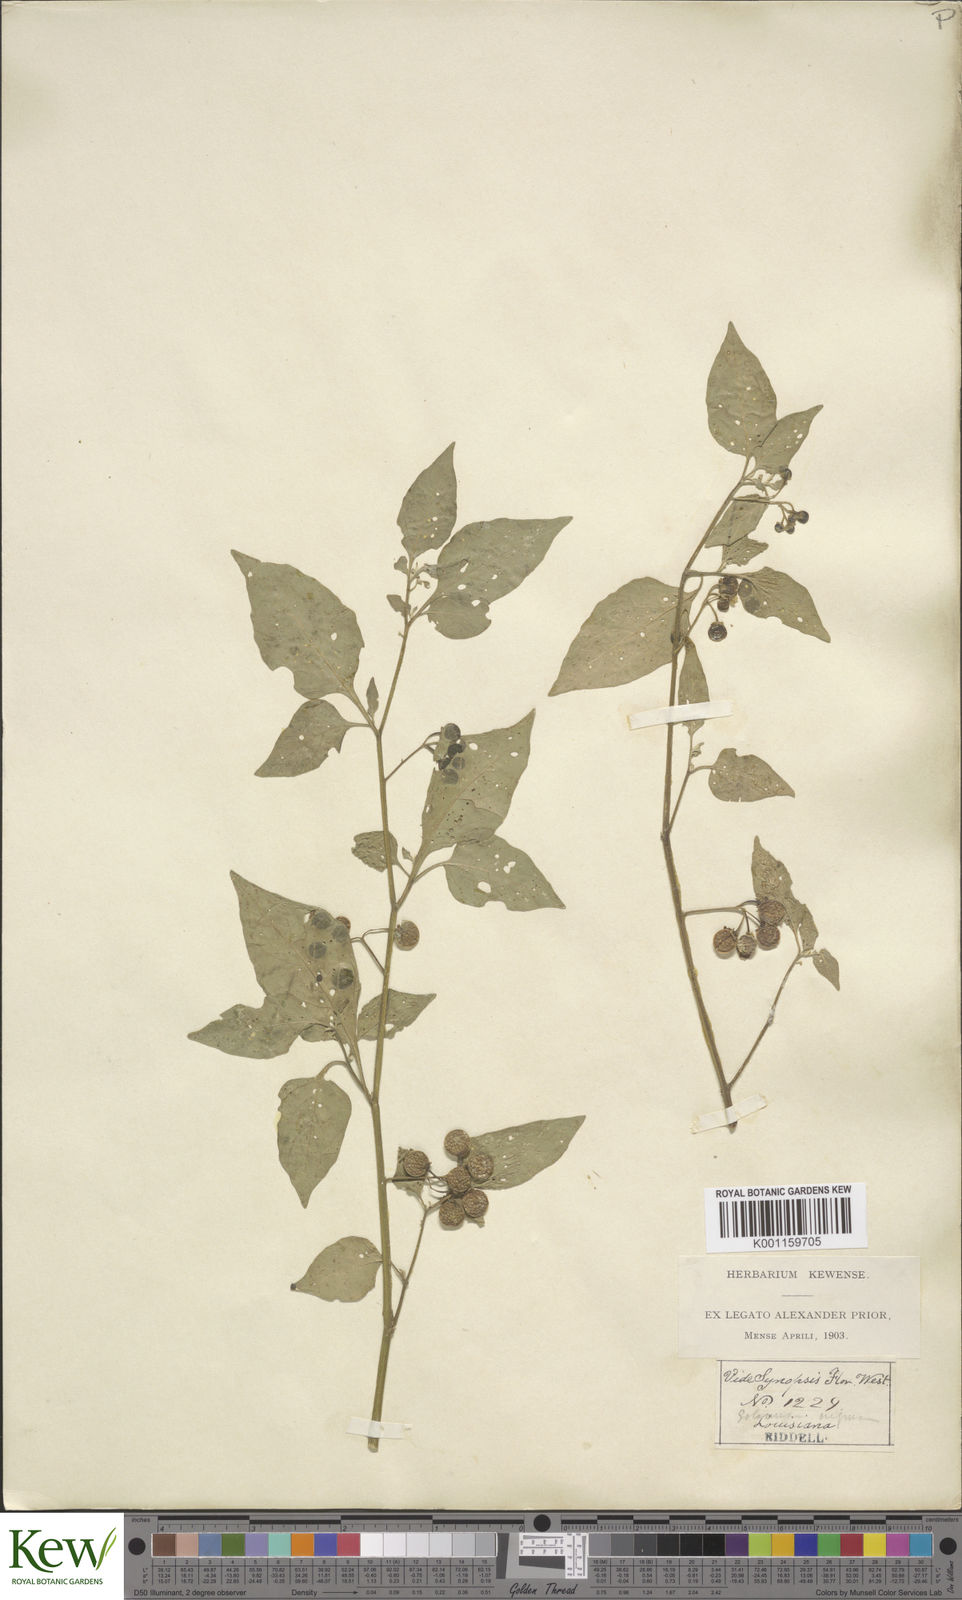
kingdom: Plantae
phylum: Tracheophyta
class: Magnoliopsida
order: Solanales
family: Solanaceae
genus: Solanum
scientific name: Solanum interius
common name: Plains black nightshade
